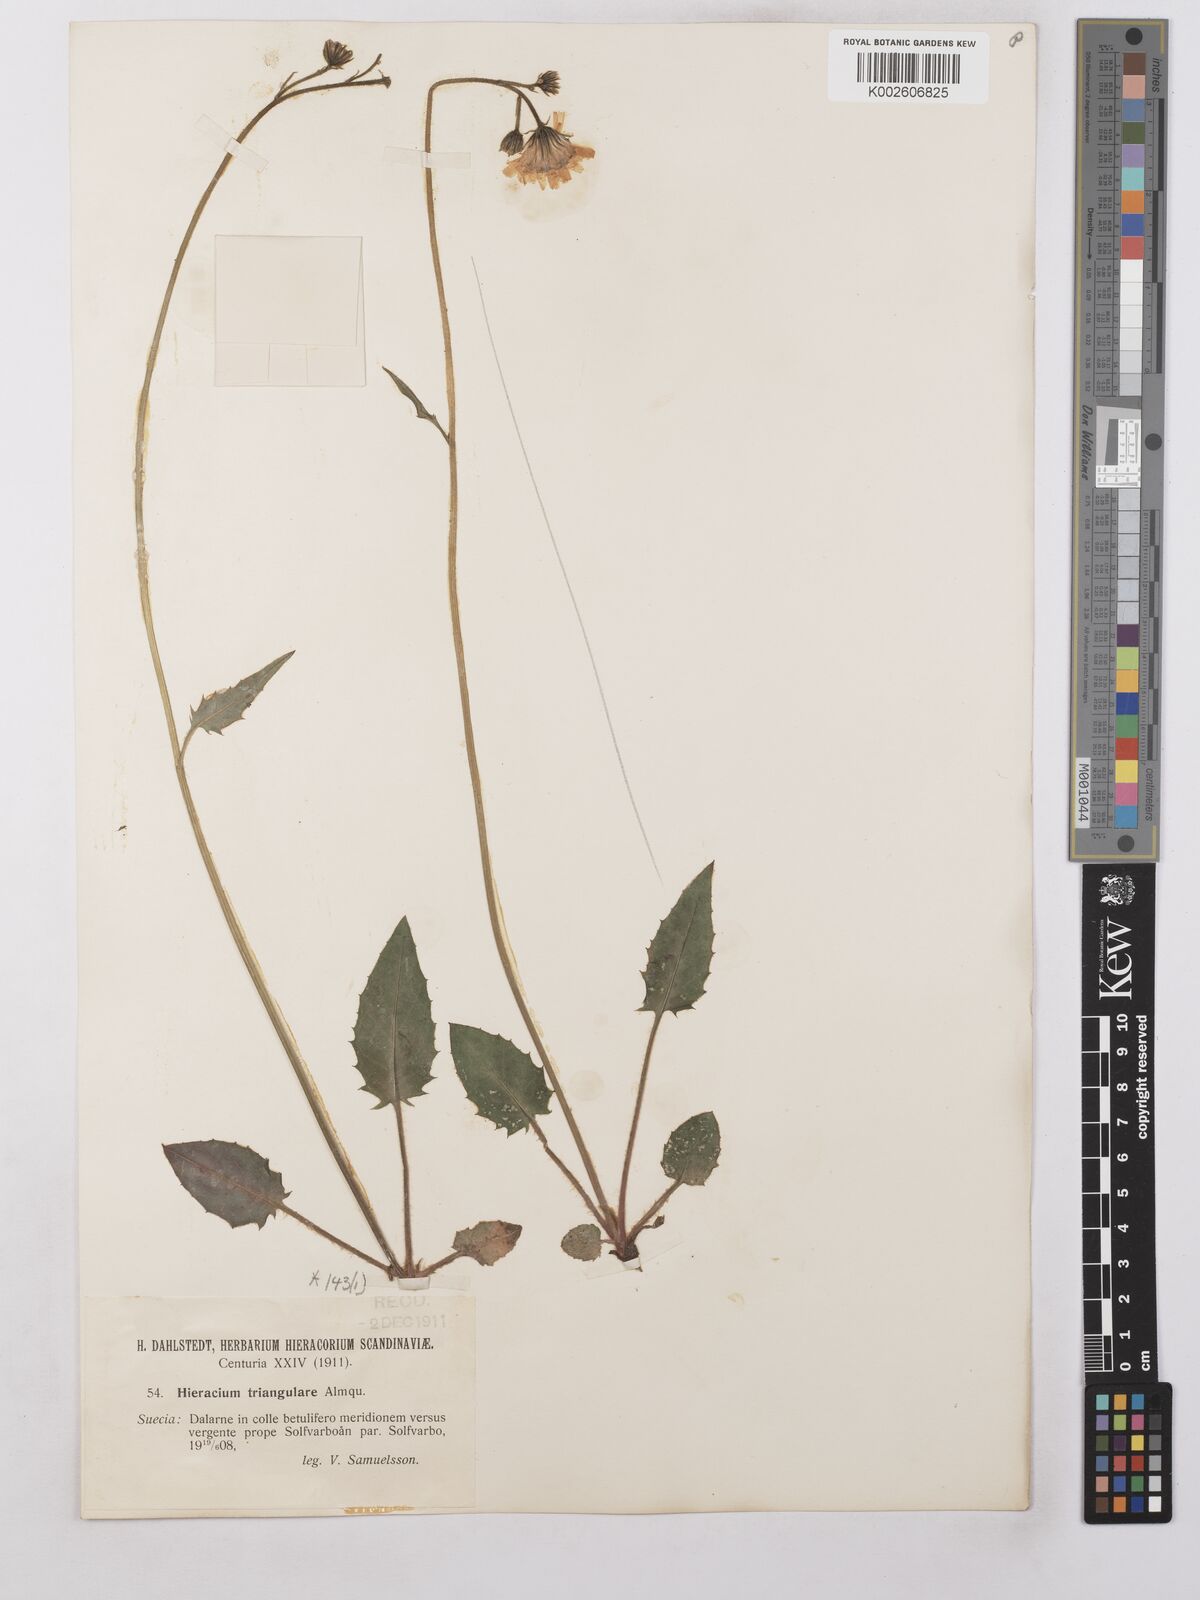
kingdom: Plantae
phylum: Tracheophyta
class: Magnoliopsida
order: Asterales
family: Asteraceae
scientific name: Asteraceae
